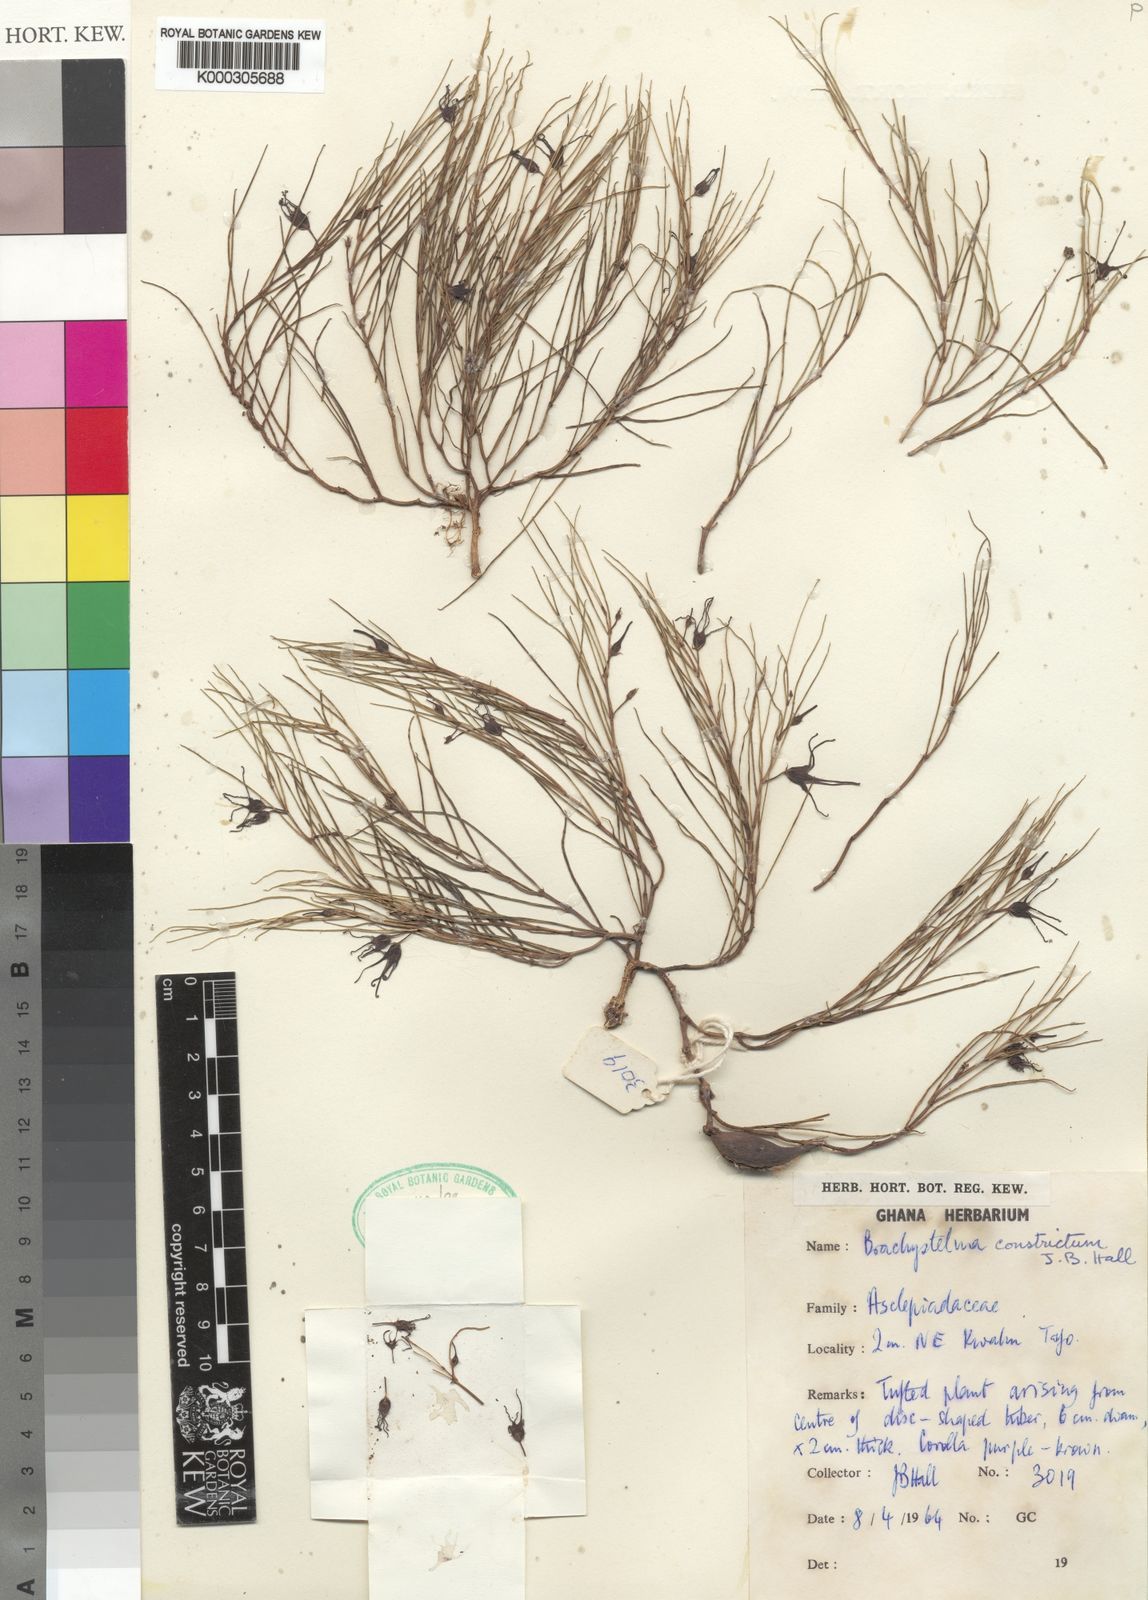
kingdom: Plantae
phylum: Tracheophyta
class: Magnoliopsida
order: Gentianales
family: Apocynaceae
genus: Ceropegia
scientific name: Ceropegia johnstonii
